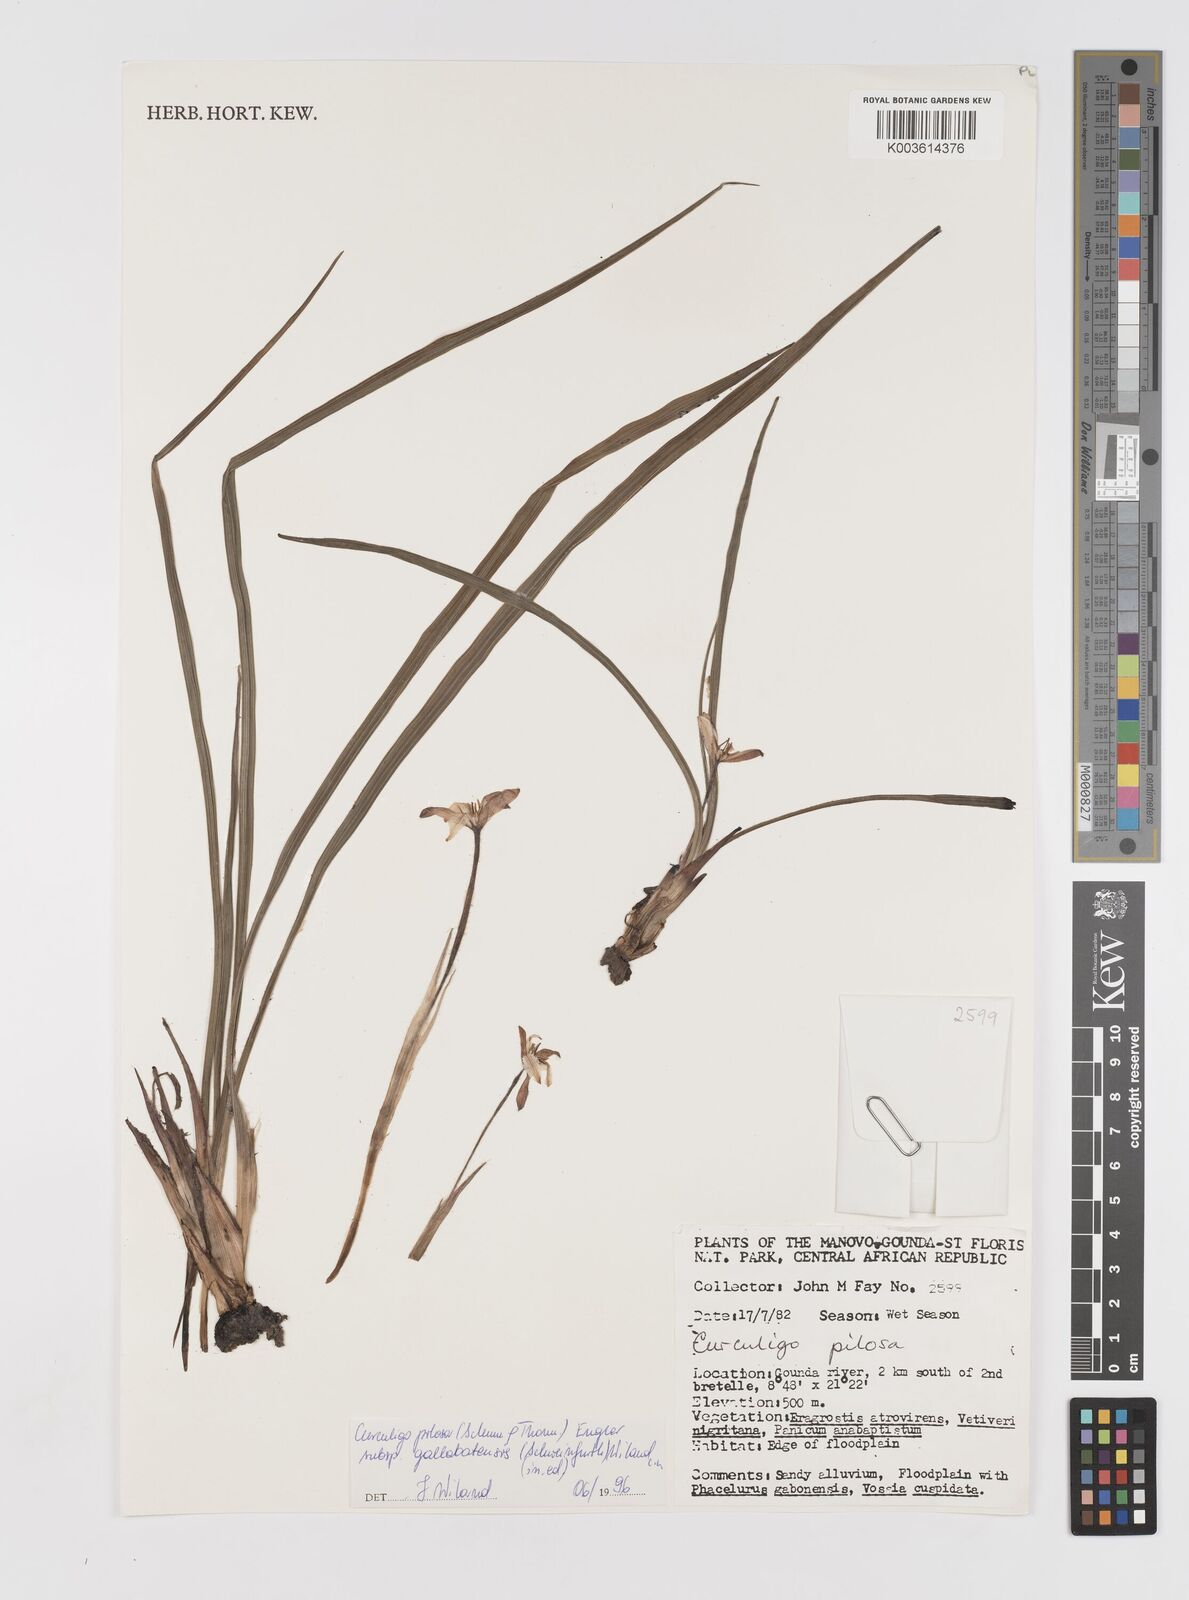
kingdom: Plantae
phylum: Tracheophyta
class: Liliopsida
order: Asparagales
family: Hypoxidaceae
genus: Curculigo
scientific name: Curculigo pilosa
